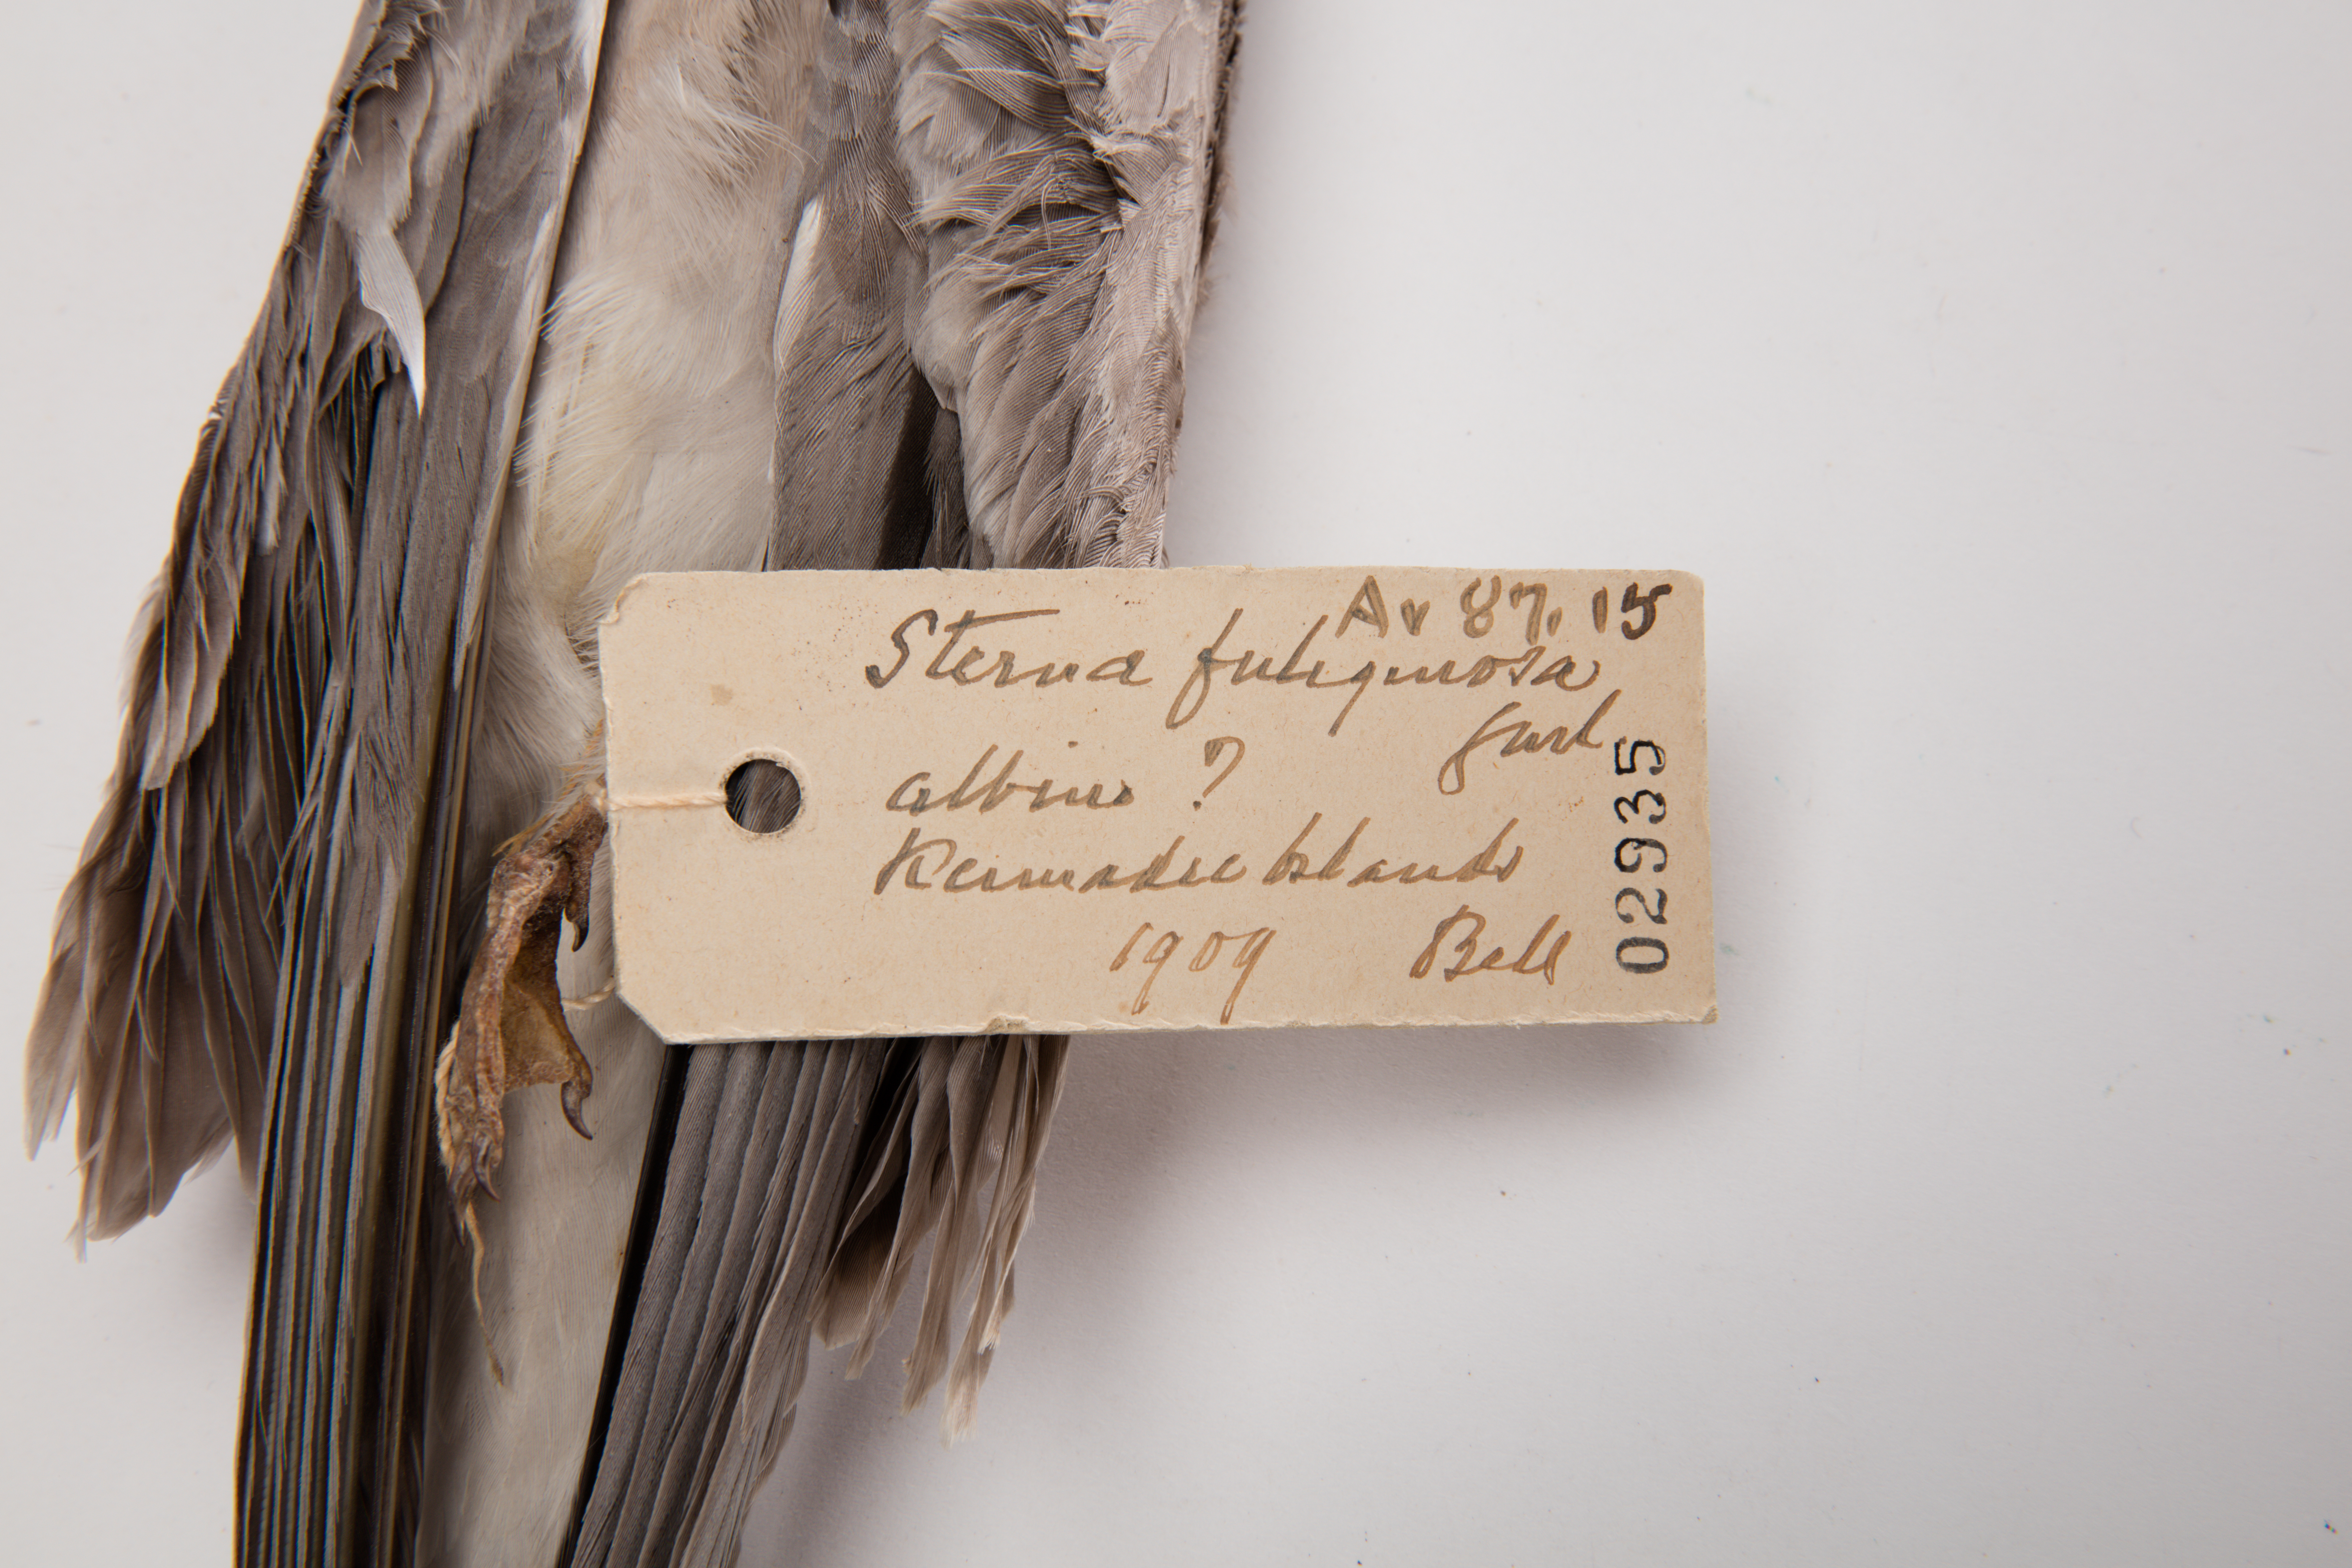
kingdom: Animalia
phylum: Chordata
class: Aves
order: Charadriiformes
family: Laridae
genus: Onychoprion
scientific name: Onychoprion fuscatus
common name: Sooty tern
